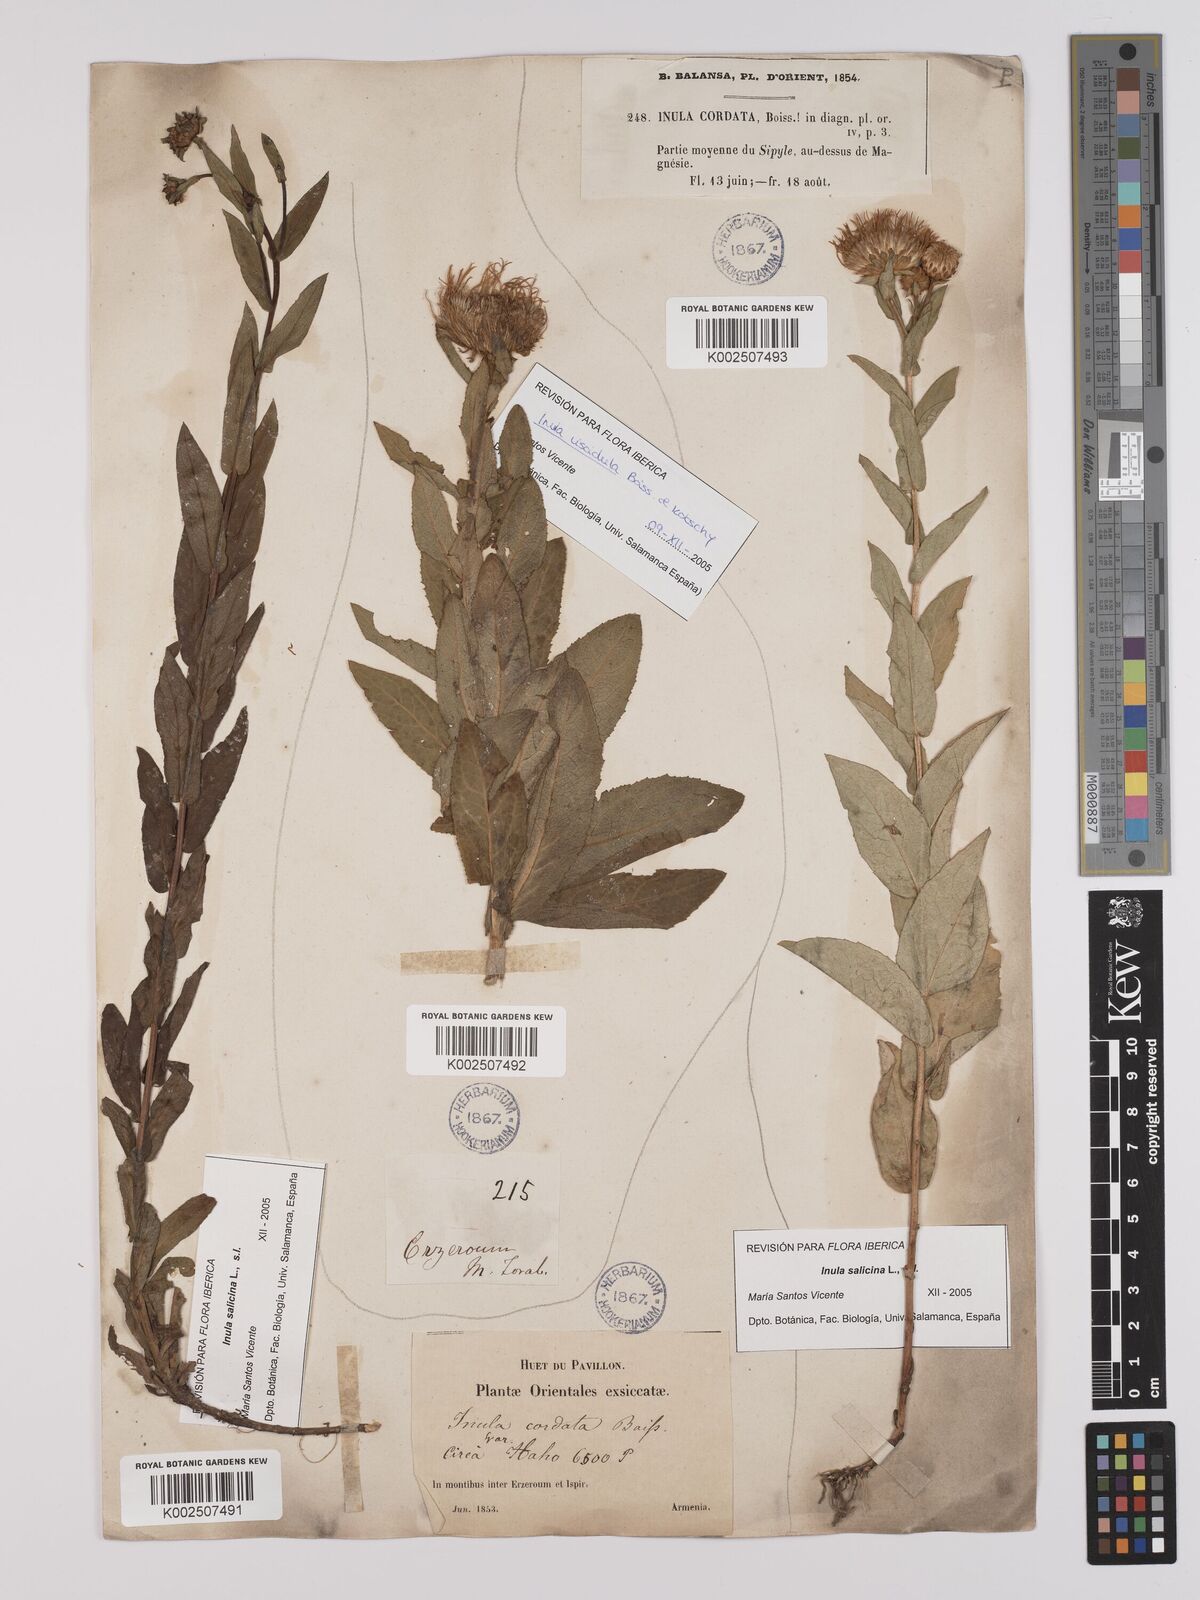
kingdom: Plantae
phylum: Tracheophyta
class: Magnoliopsida
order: Asterales
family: Asteraceae
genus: Pentanema
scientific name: Pentanema salicinum
